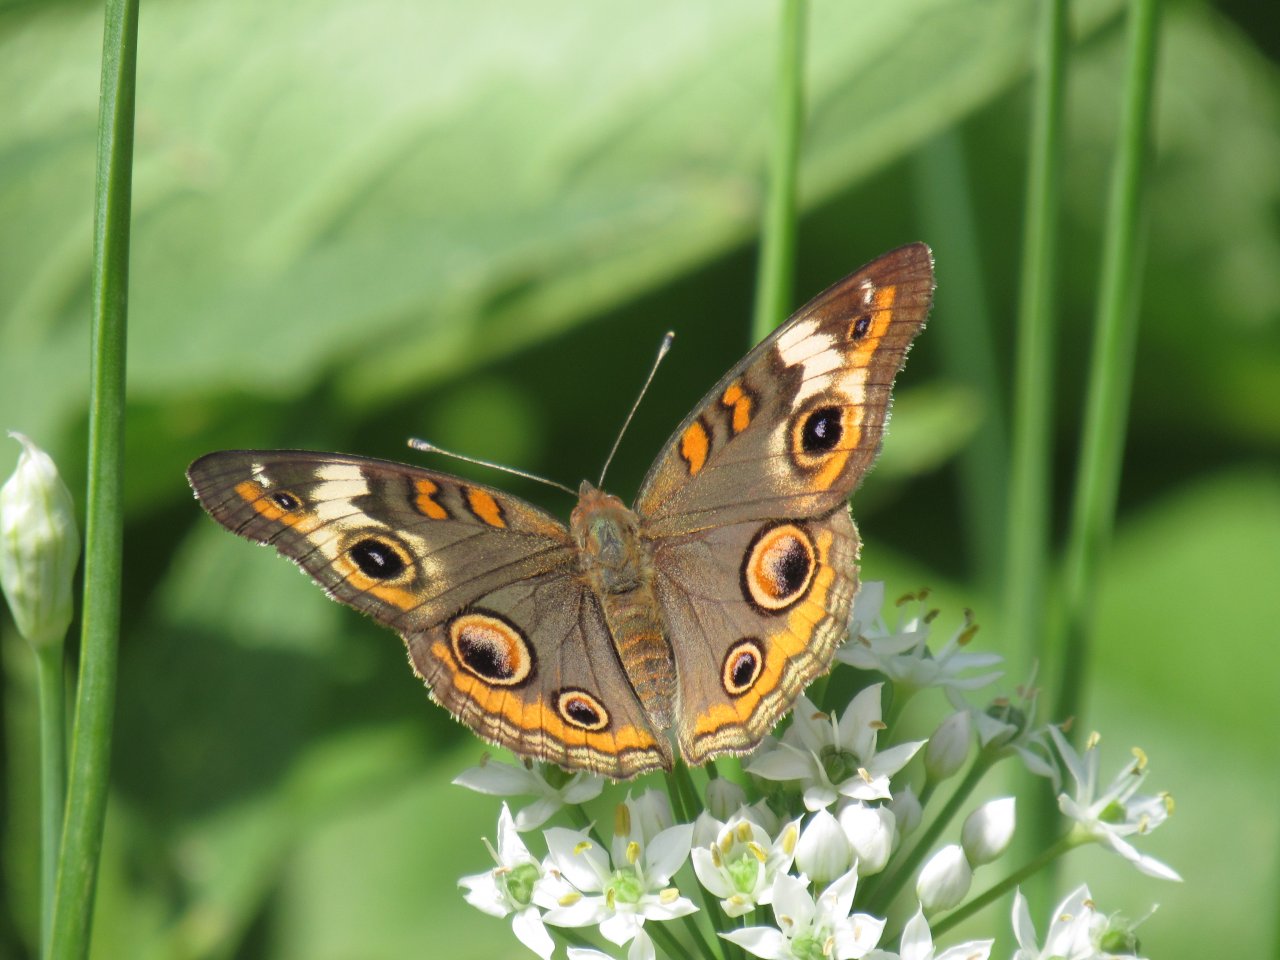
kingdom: Animalia
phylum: Arthropoda
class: Insecta
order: Lepidoptera
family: Nymphalidae
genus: Junonia
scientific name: Junonia coenia
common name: Common Buckeye
